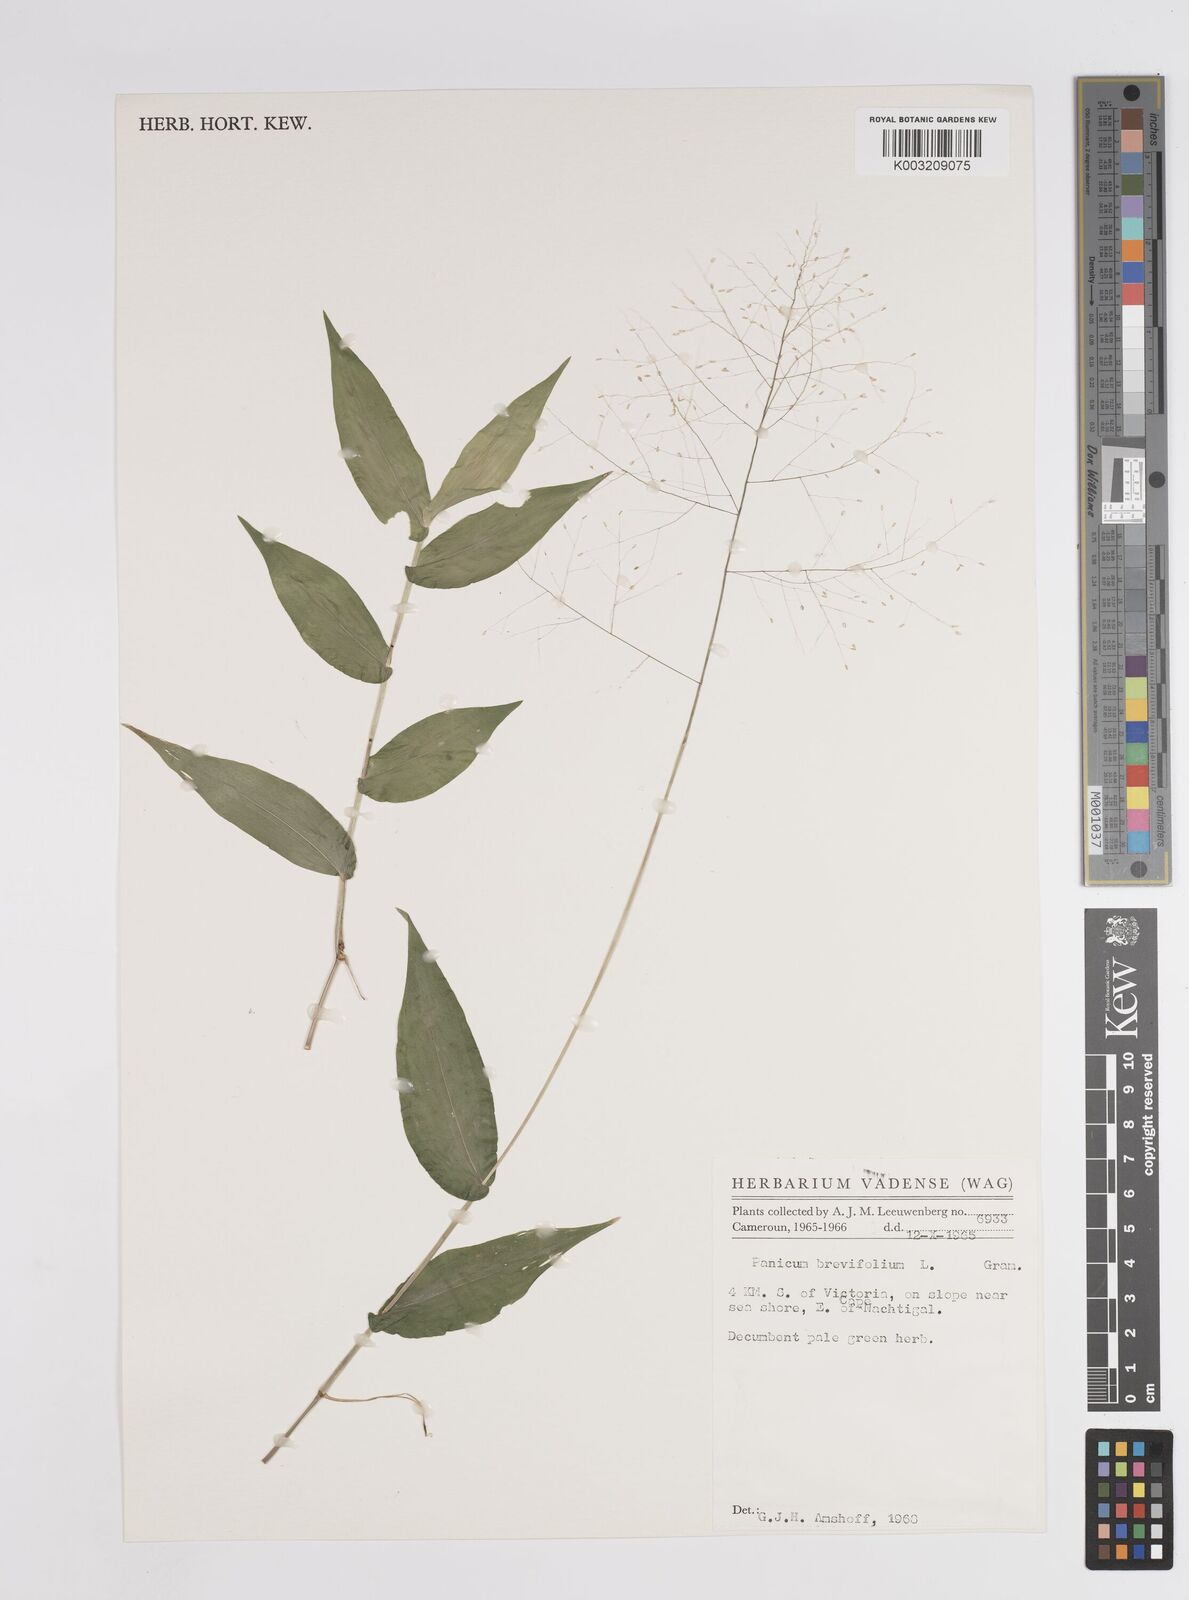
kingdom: Plantae
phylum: Tracheophyta
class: Liliopsida
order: Poales
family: Poaceae
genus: Panicum
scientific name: Panicum brevifolium
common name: Shortleaf panic grass
